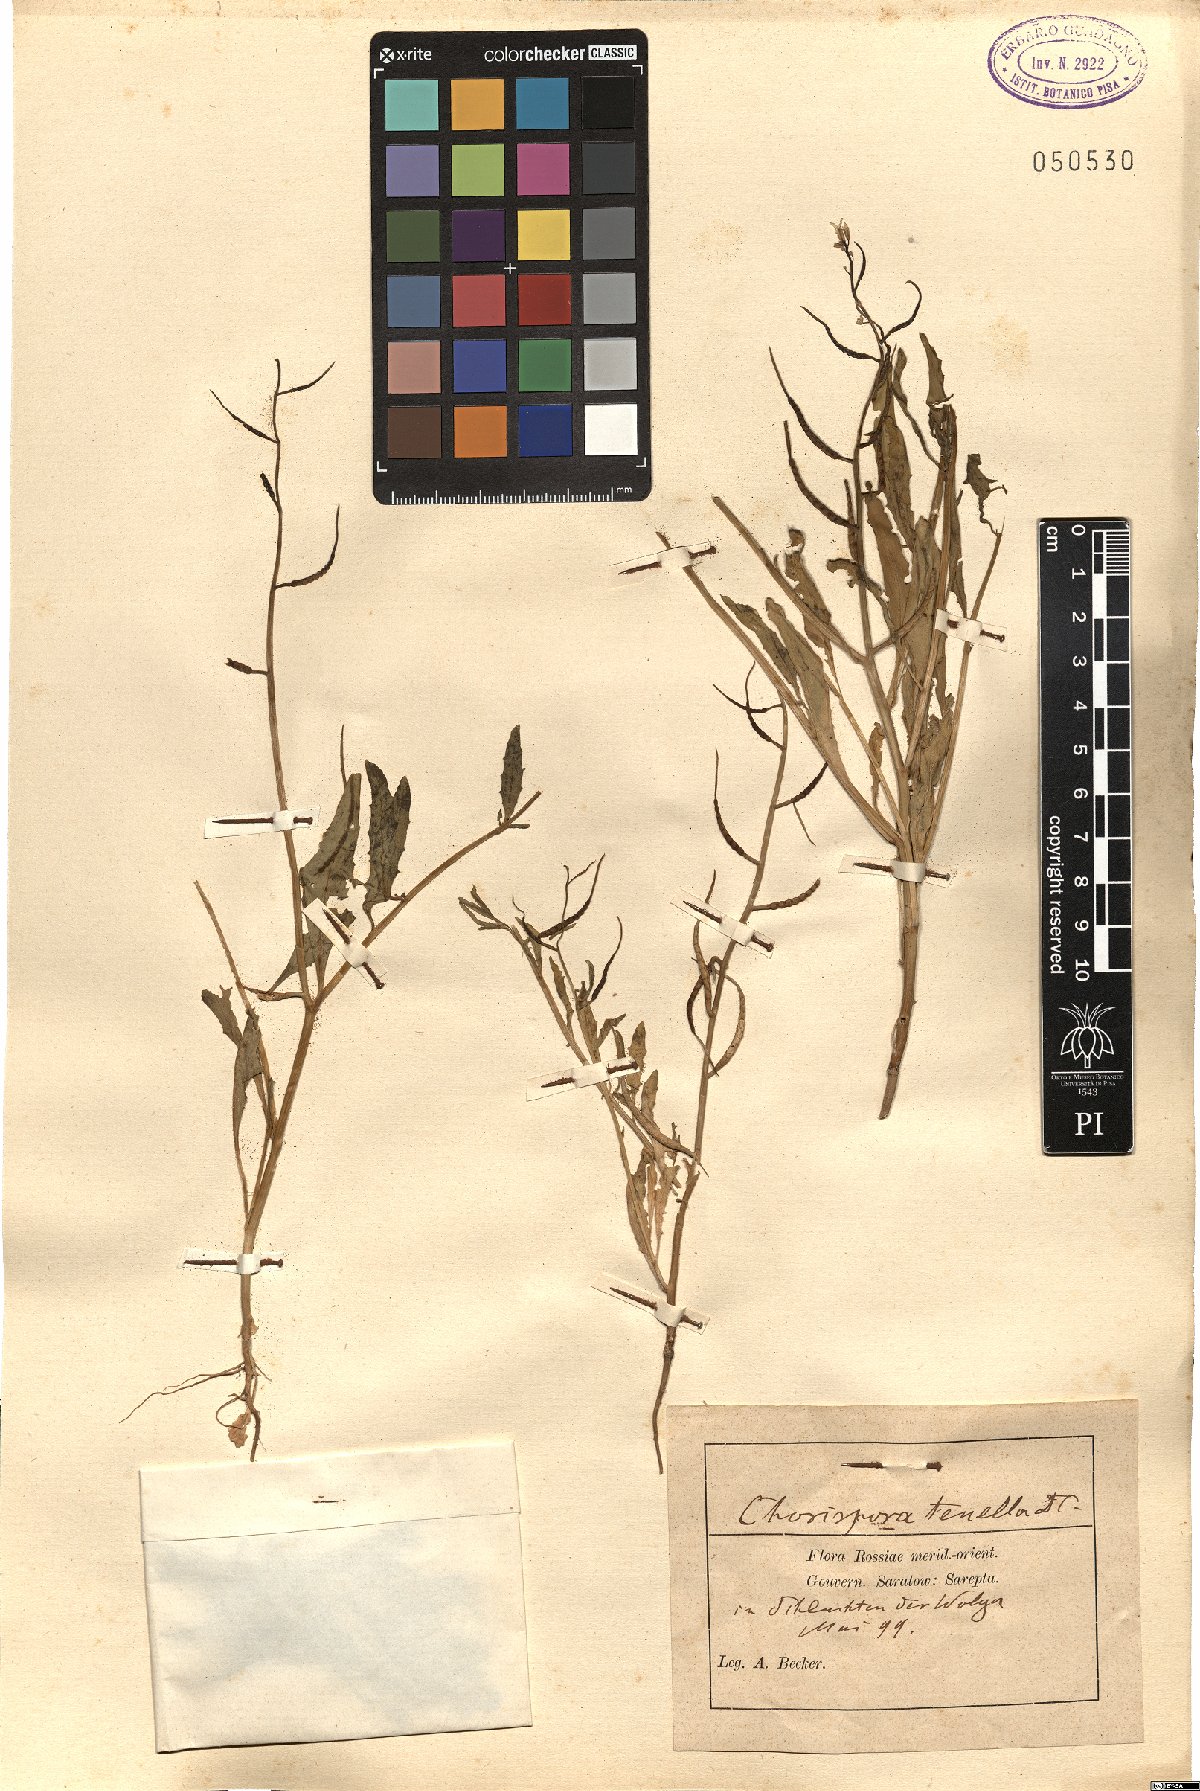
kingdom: Plantae
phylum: Tracheophyta
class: Magnoliopsida
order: Brassicales
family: Brassicaceae
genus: Chorispora
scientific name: Chorispora tenella
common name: Crossflower
